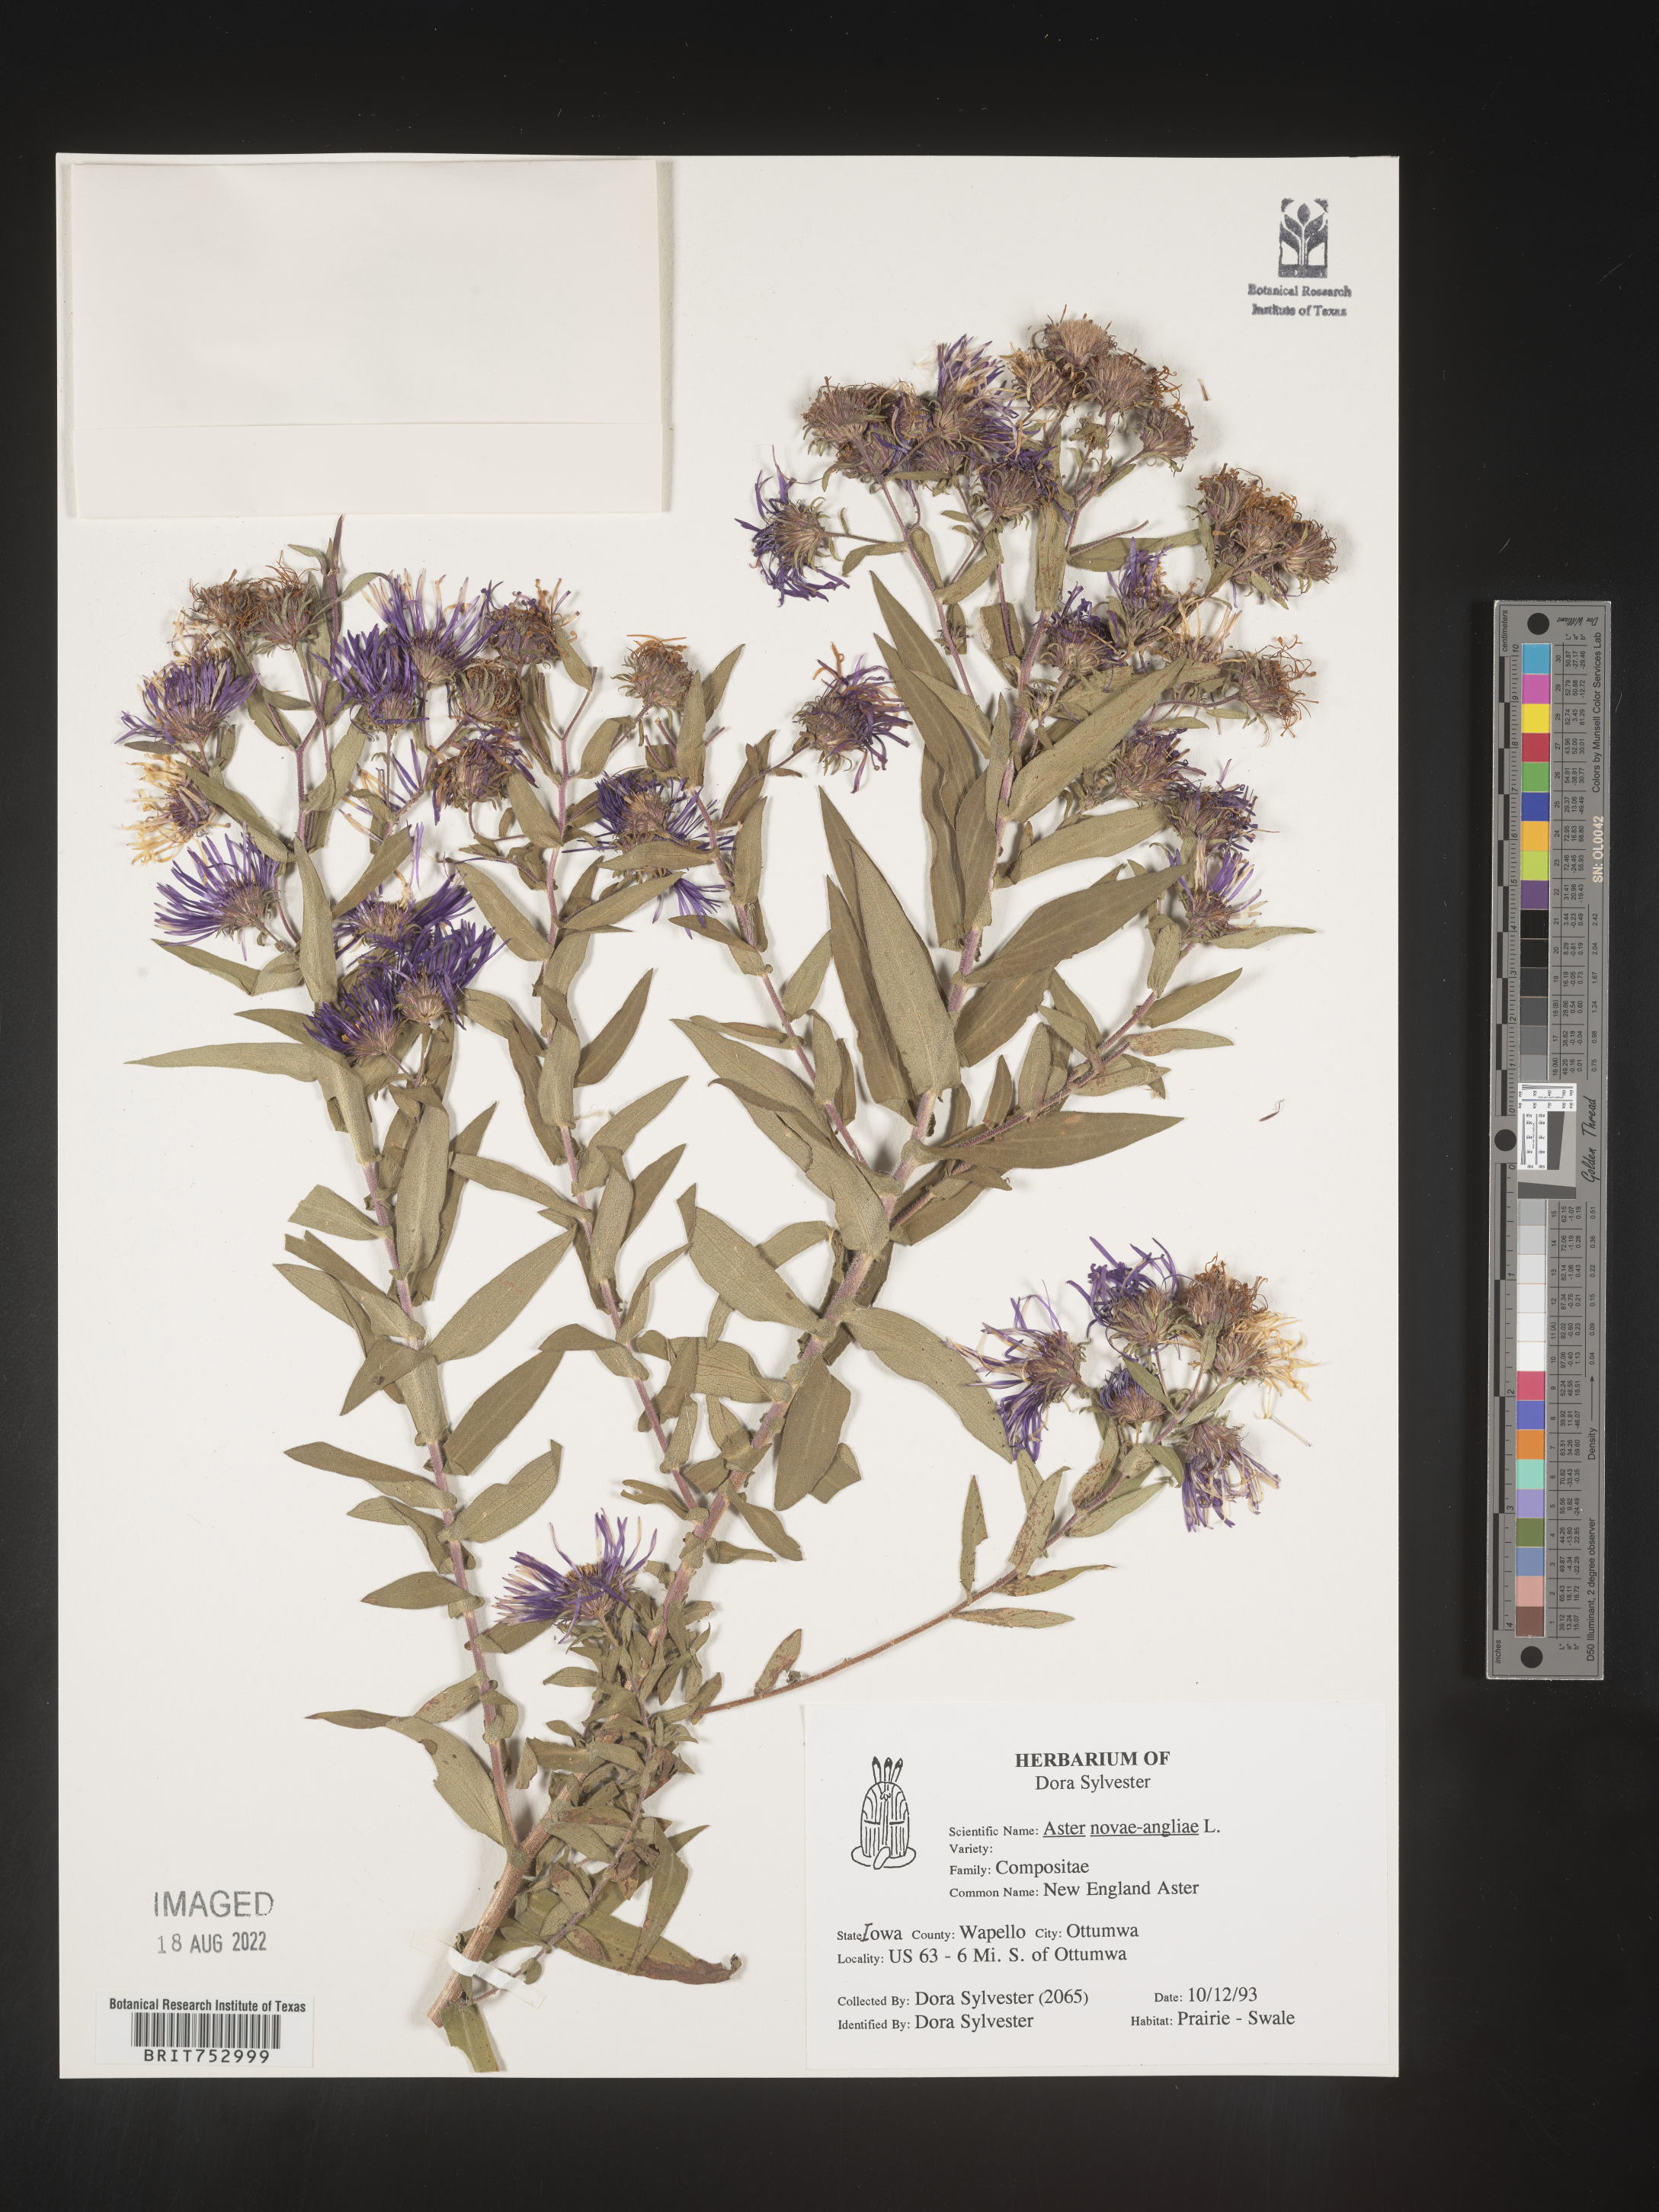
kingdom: Plantae
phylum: Tracheophyta
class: Magnoliopsida
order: Asterales
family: Asteraceae
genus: Symphyotrichum
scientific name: Symphyotrichum novae-angliae
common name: Michaelmas daisy
